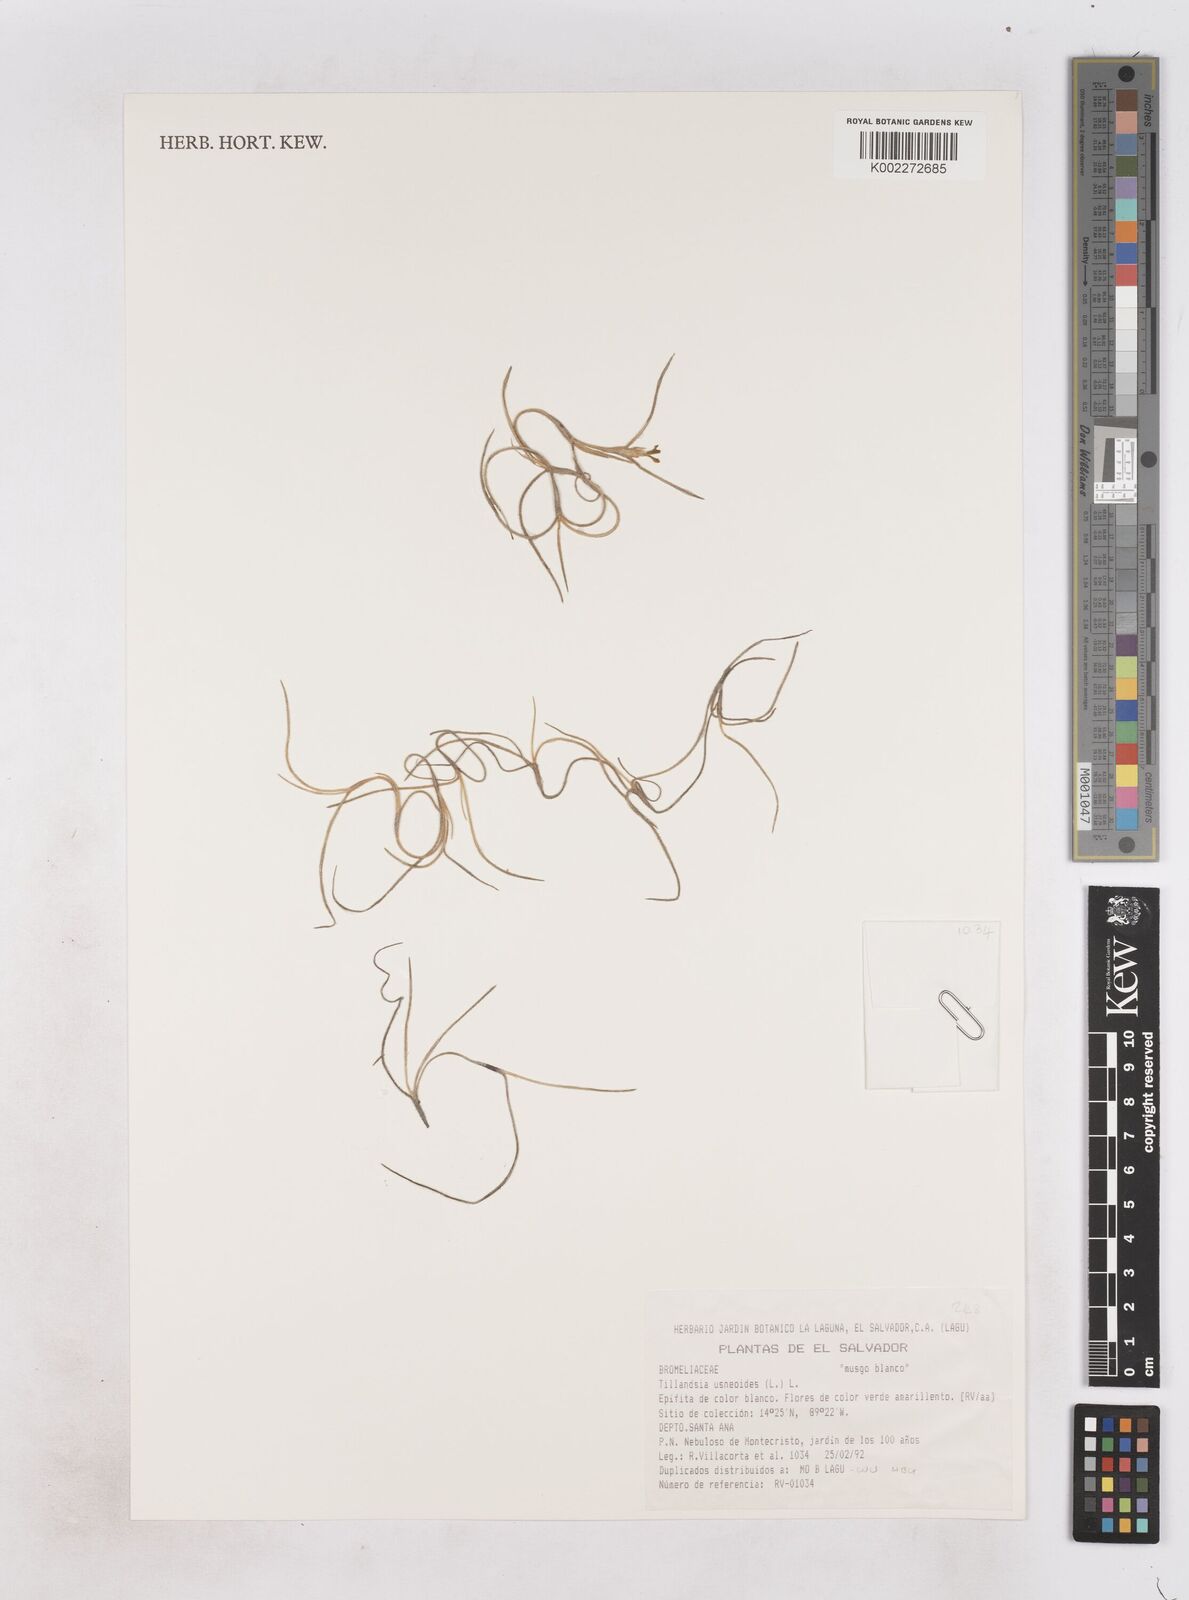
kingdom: Plantae
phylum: Tracheophyta
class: Liliopsida
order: Poales
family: Bromeliaceae
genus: Tillandsia
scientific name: Tillandsia usneoides
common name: Spanish moss
